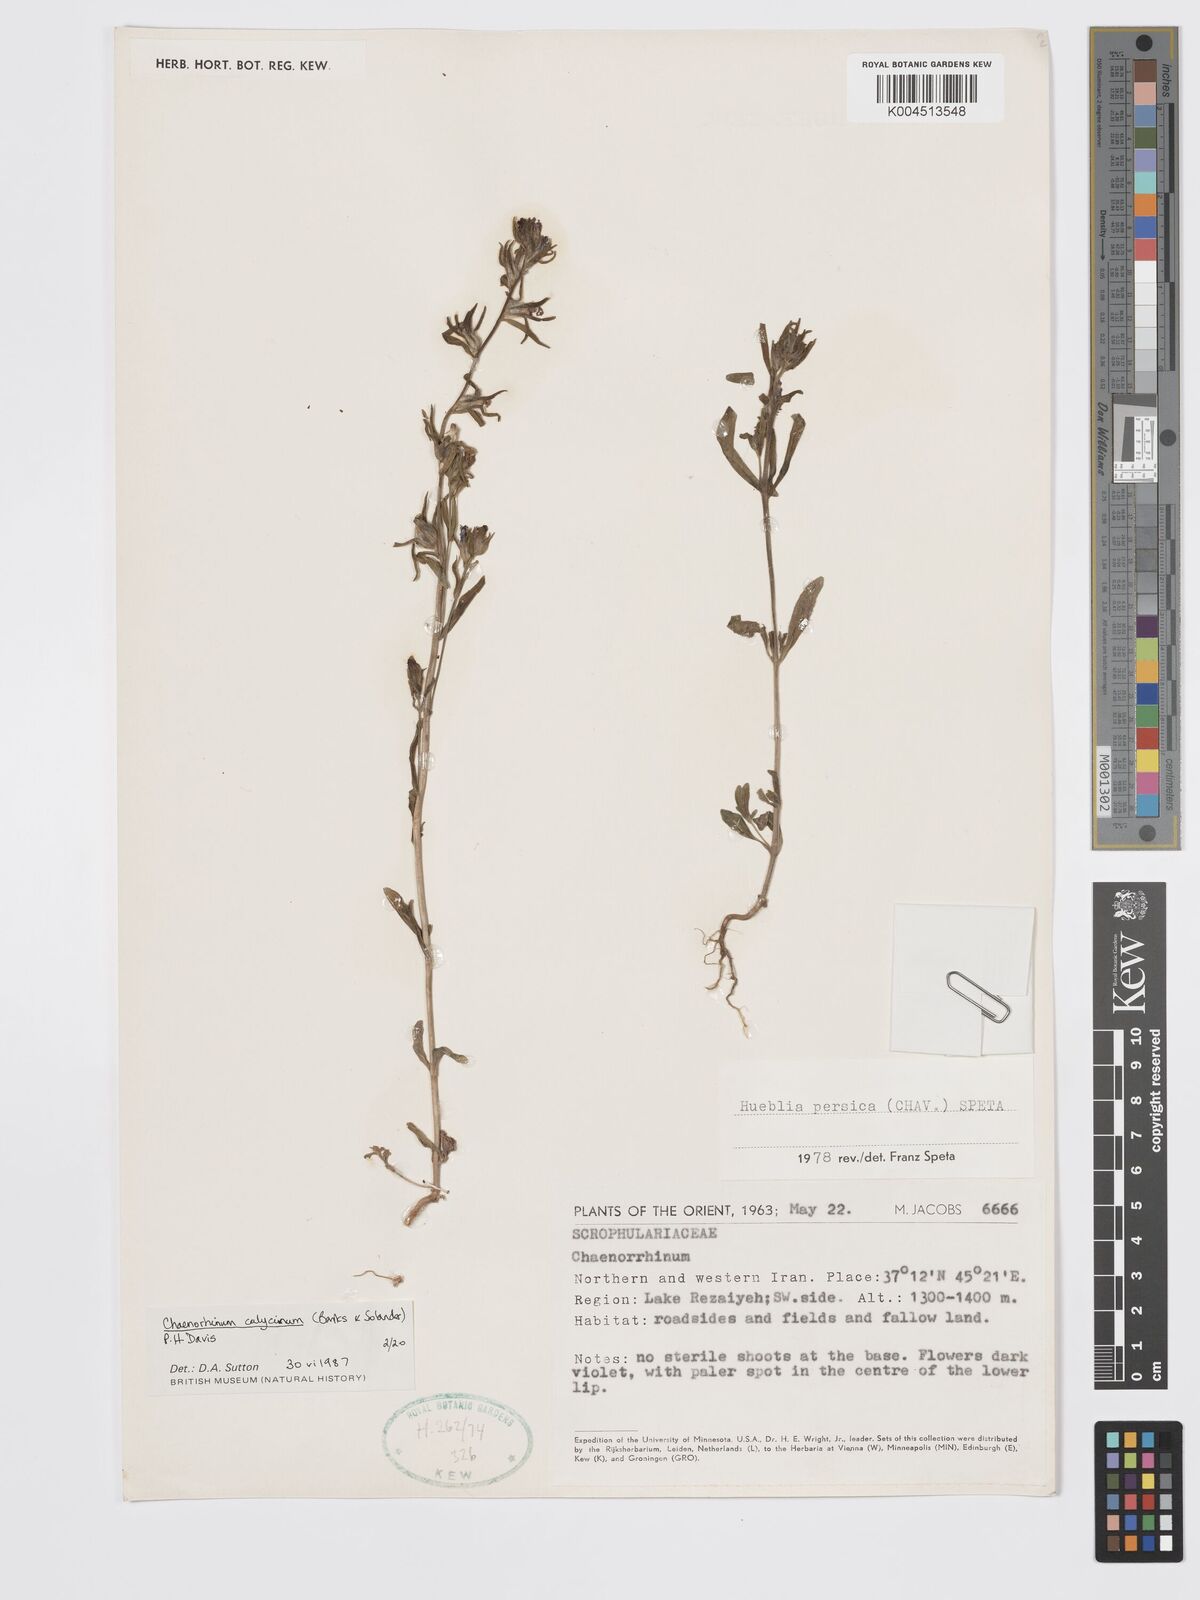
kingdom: Plantae
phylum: Tracheophyta
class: Magnoliopsida
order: Lamiales
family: Plantaginaceae
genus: Chaenorhinum
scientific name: Chaenorhinum calycinum
